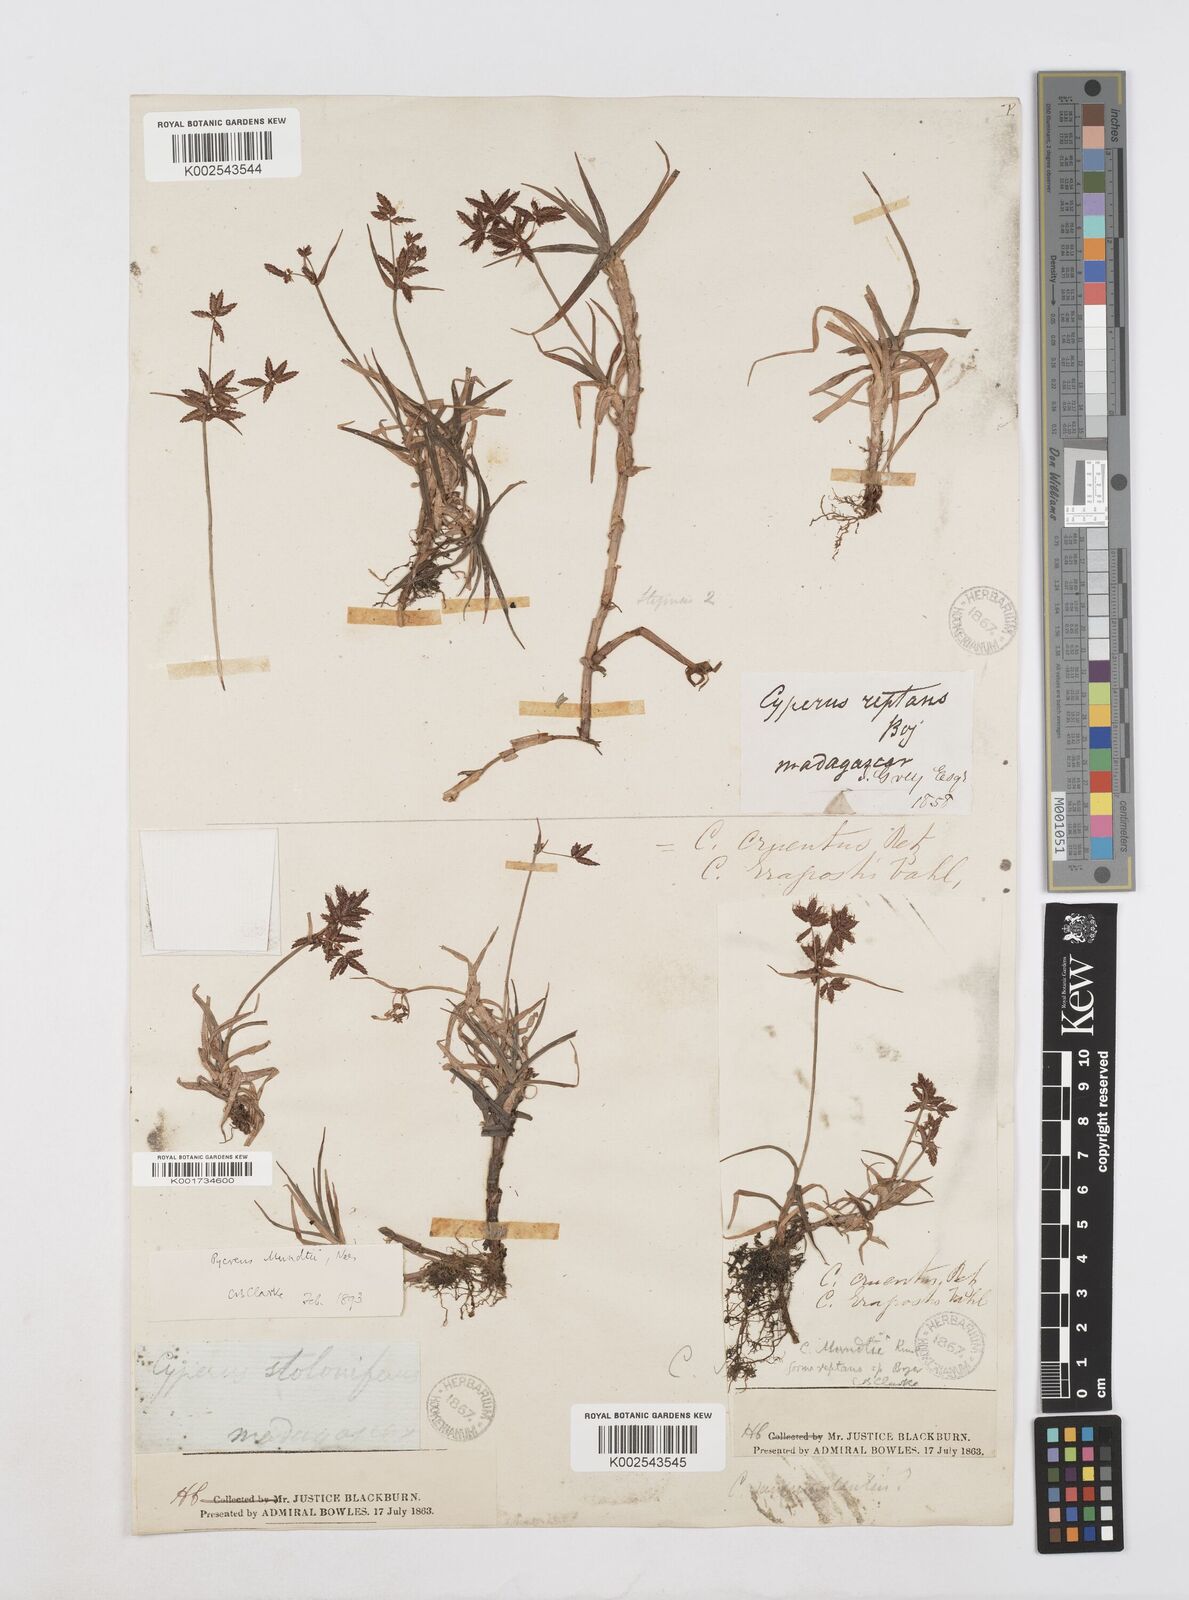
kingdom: Plantae
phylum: Tracheophyta
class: Liliopsida
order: Poales
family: Cyperaceae
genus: Cyperus
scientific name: Cyperus mundii
